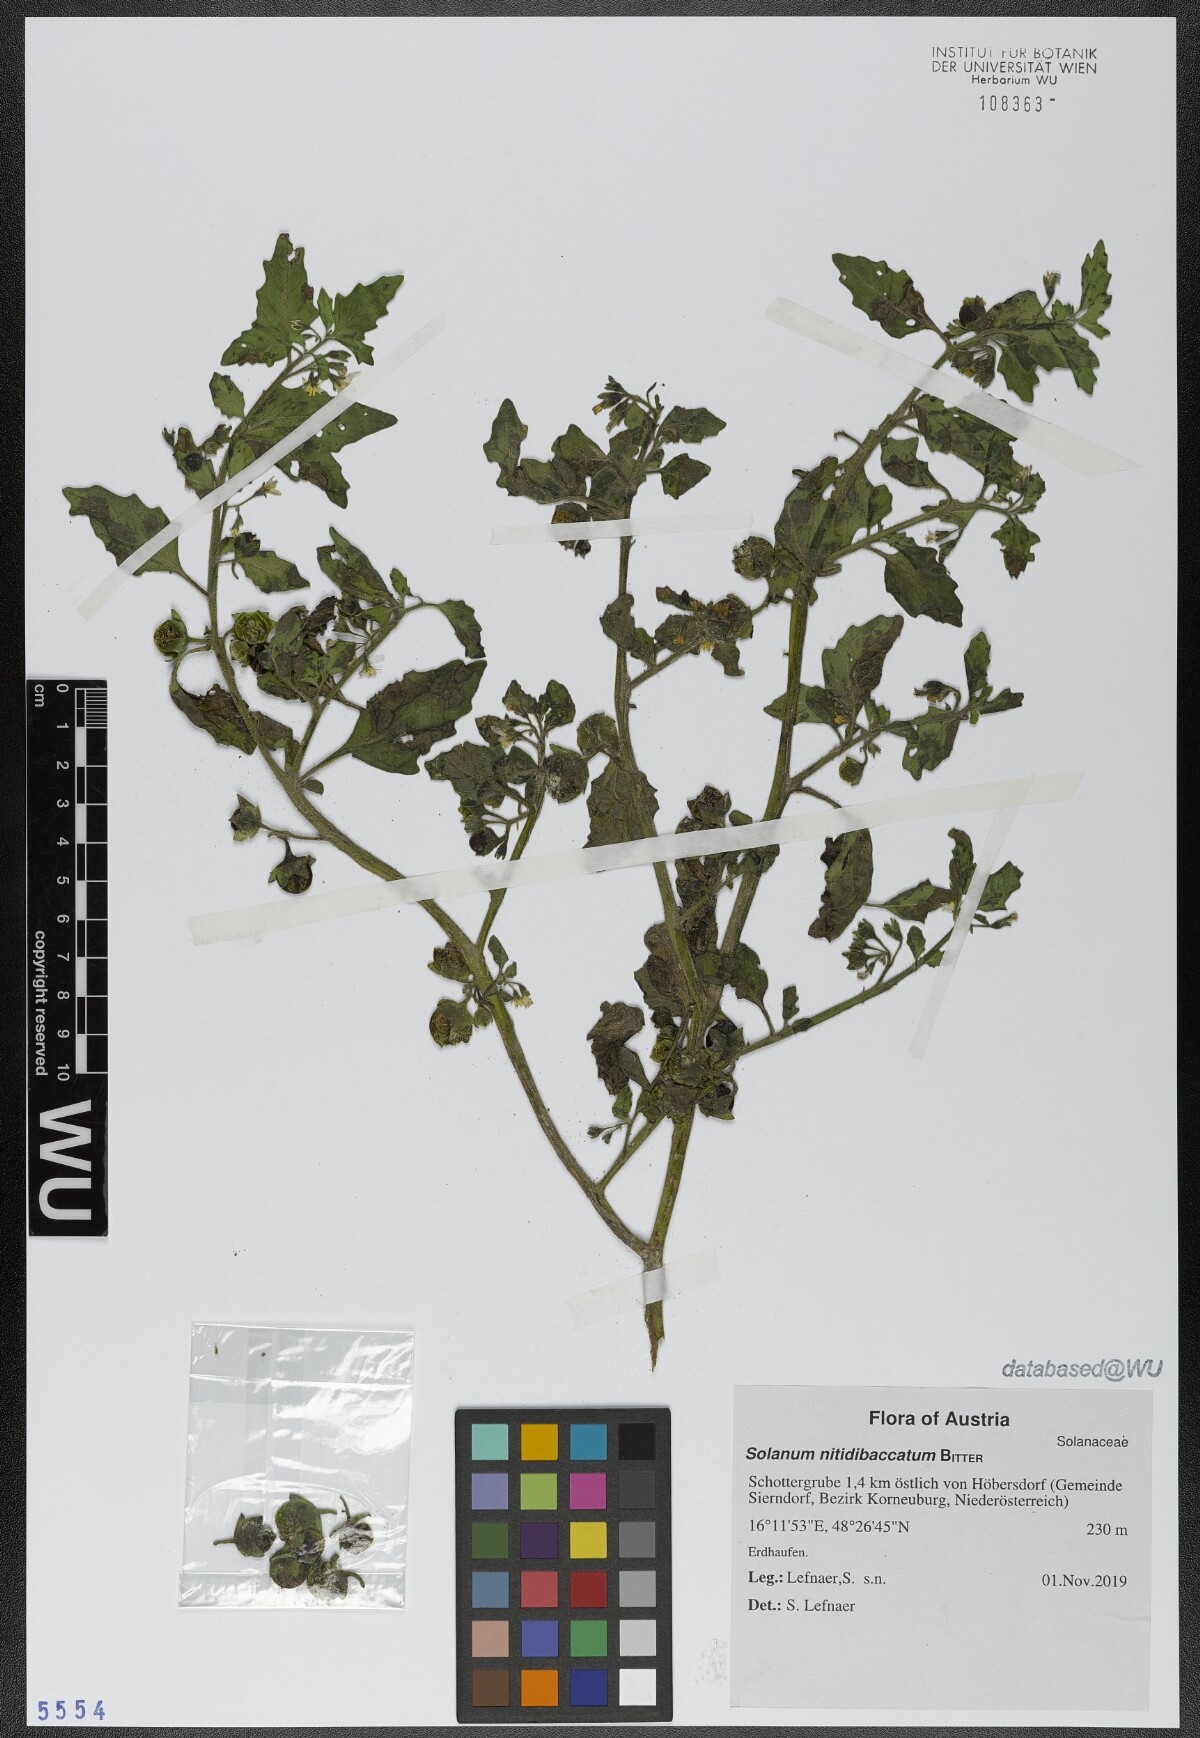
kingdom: Plantae
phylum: Tracheophyta
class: Magnoliopsida
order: Solanales
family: Solanaceae
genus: Solanum
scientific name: Solanum nitidibaccatum
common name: Hairy nightshade
